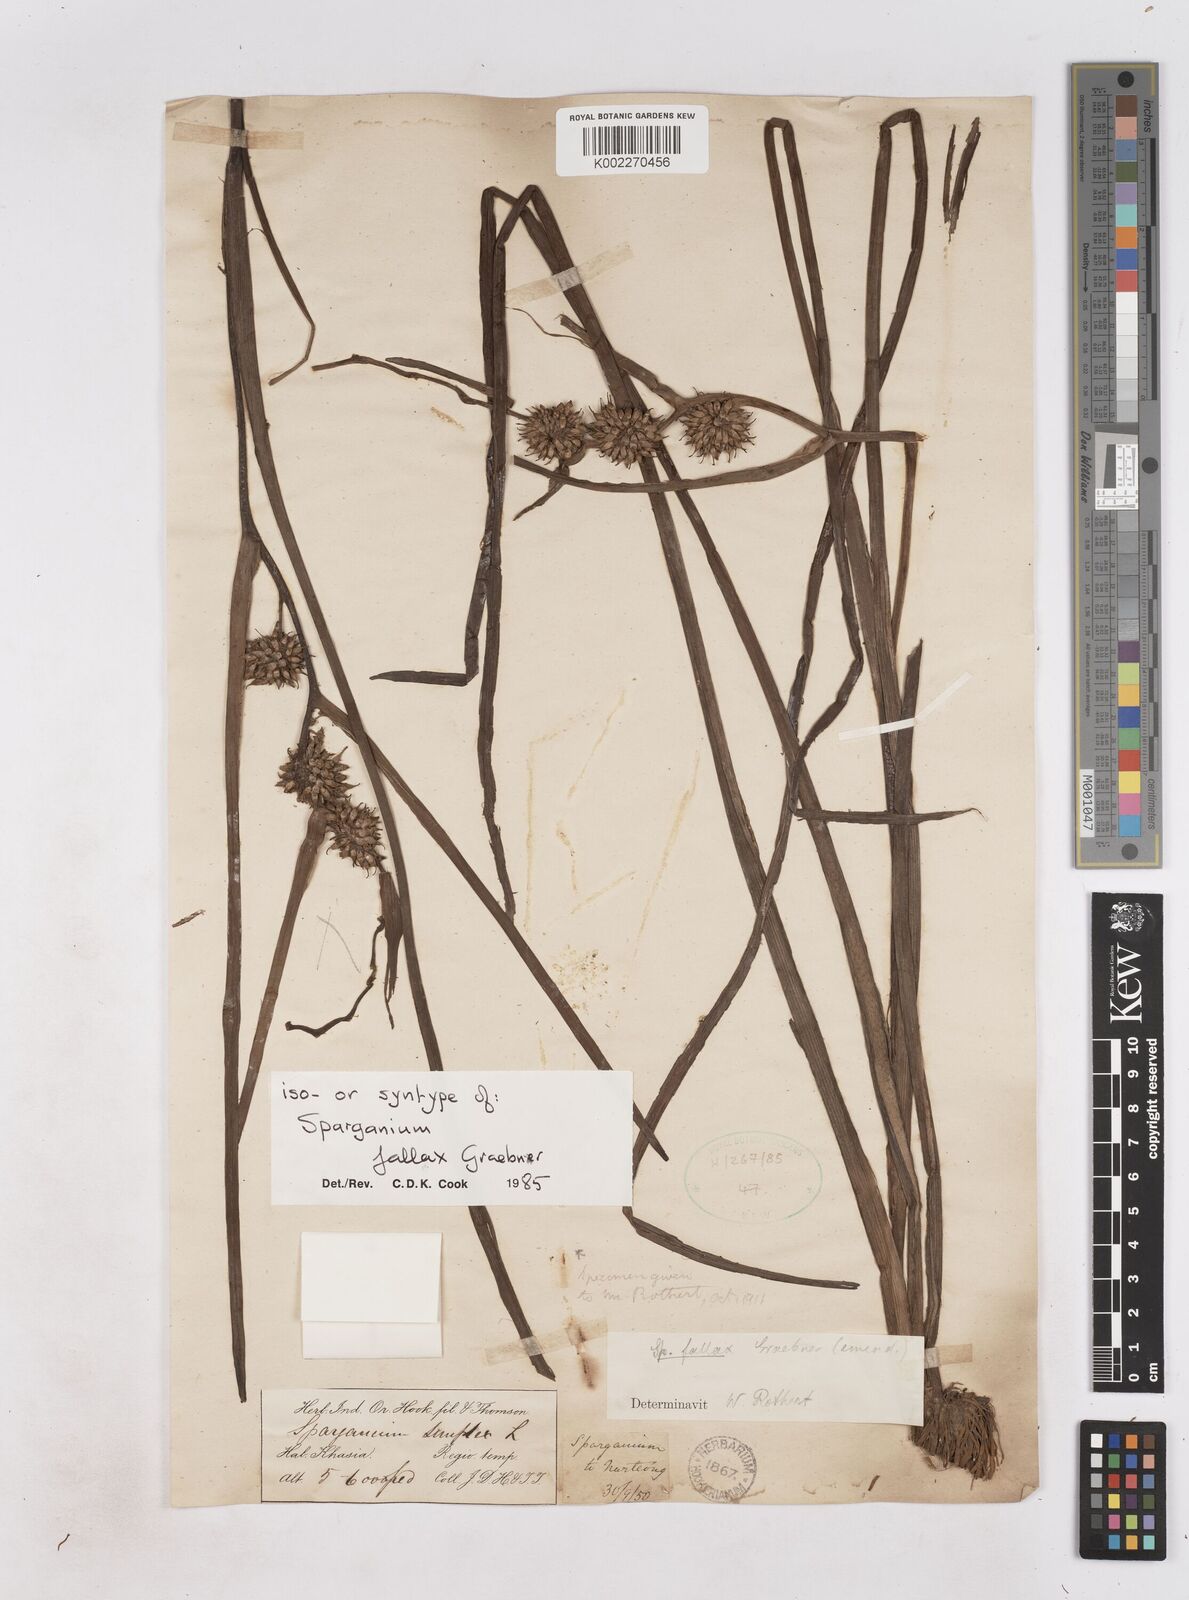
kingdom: Plantae
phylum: Tracheophyta
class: Liliopsida
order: Poales
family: Typhaceae
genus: Sparganium
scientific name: Sparganium fallax
